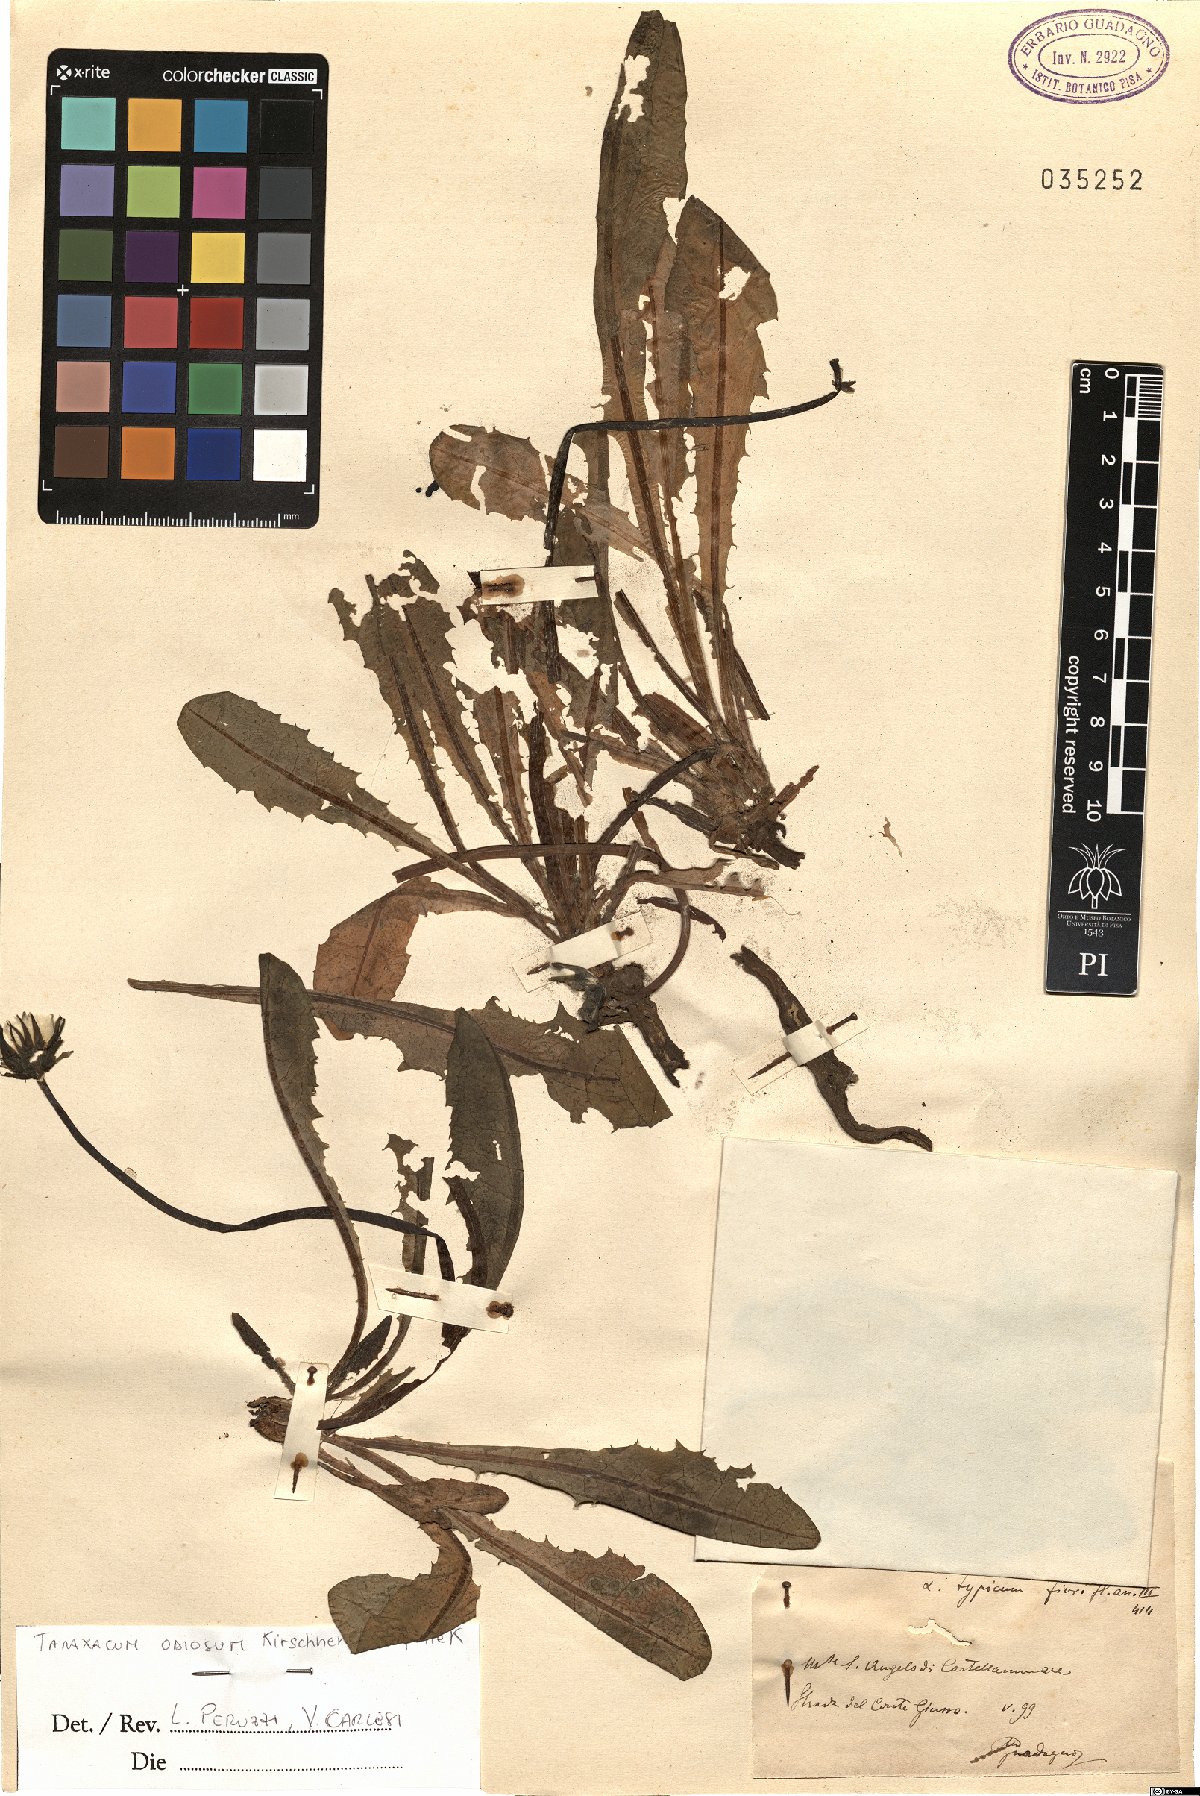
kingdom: Plantae
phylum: Tracheophyta
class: Magnoliopsida
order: Asterales
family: Asteraceae
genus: Taraxacum
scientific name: Taraxacum odiosum
